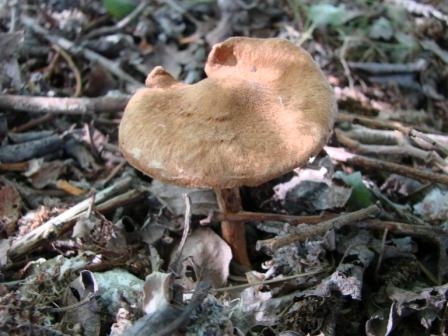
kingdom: Fungi
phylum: Basidiomycota
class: Agaricomycetes
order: Agaricales
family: Inocybaceae
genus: Mallocybe
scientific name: Mallocybe agardhii
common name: Agardhs trævlhat
